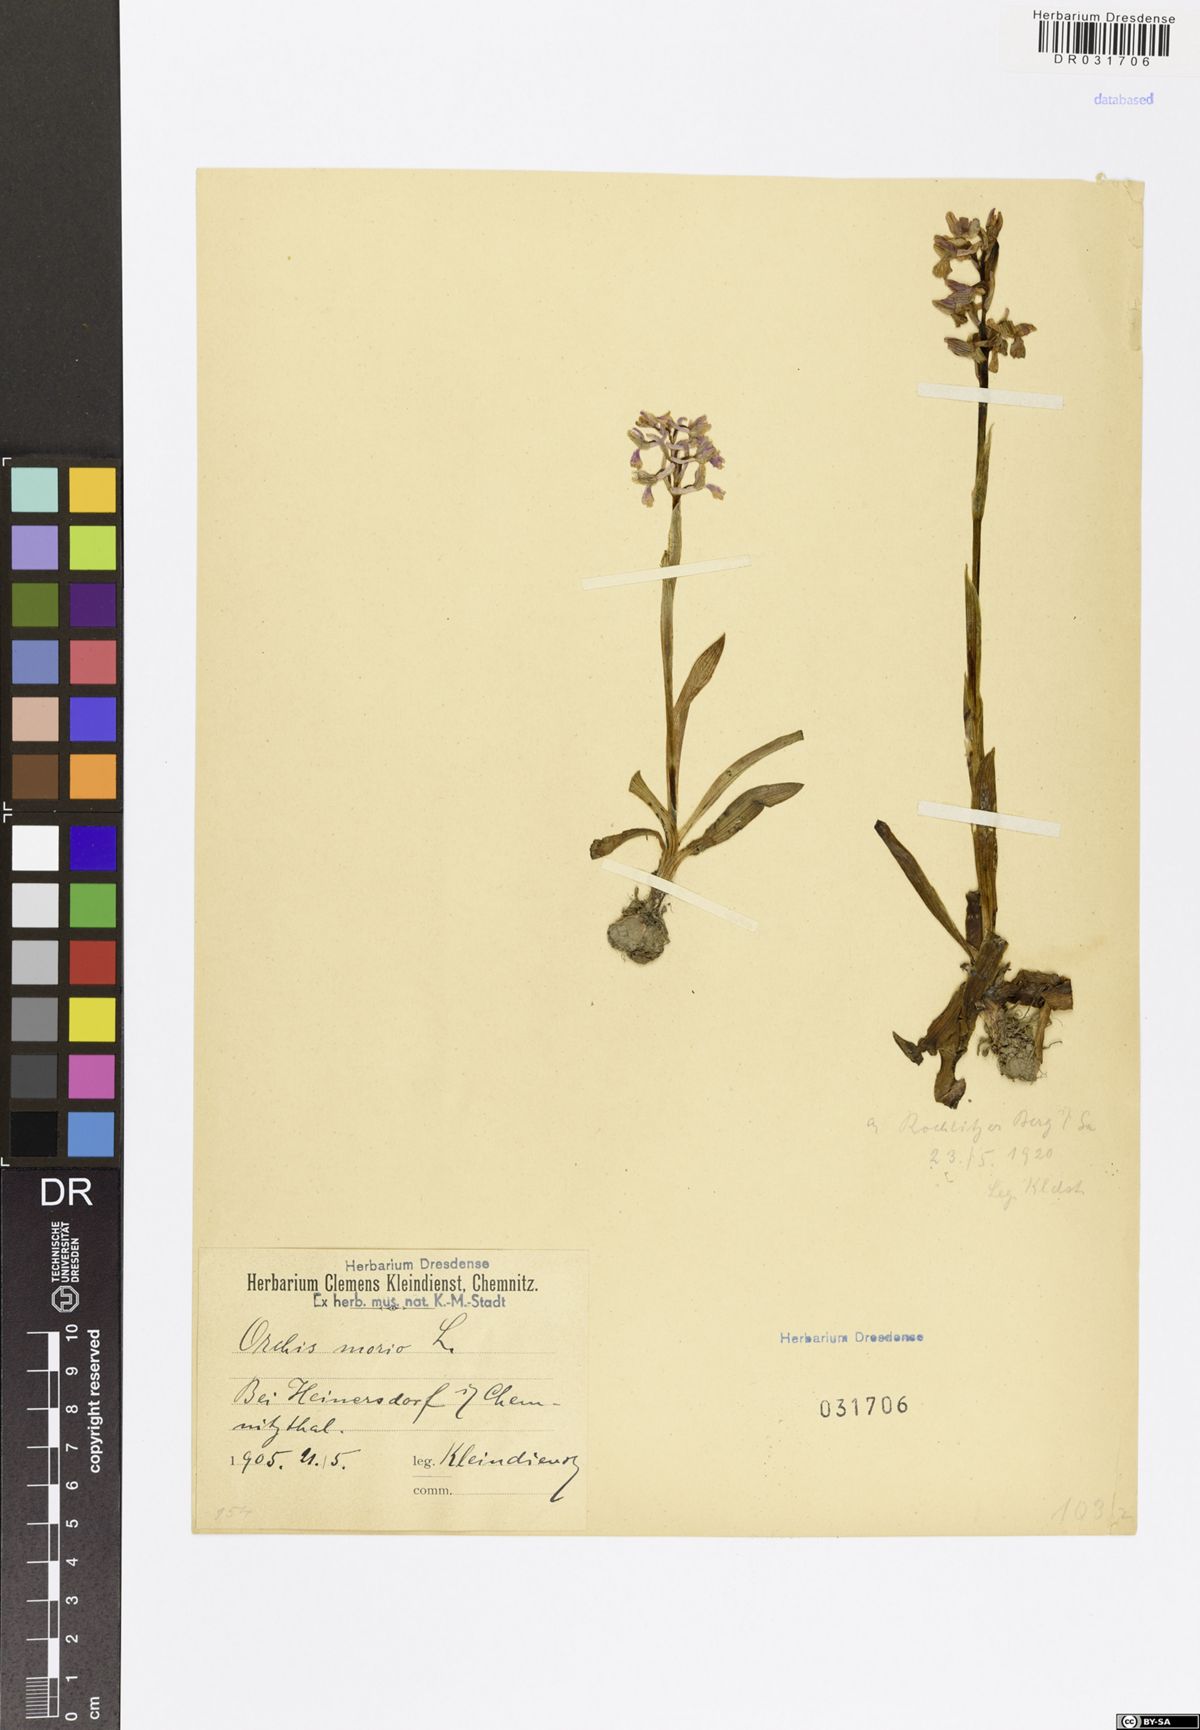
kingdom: Plantae
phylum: Tracheophyta
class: Liliopsida
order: Asparagales
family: Orchidaceae
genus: Anacamptis
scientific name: Anacamptis morio
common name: Green-winged orchid
